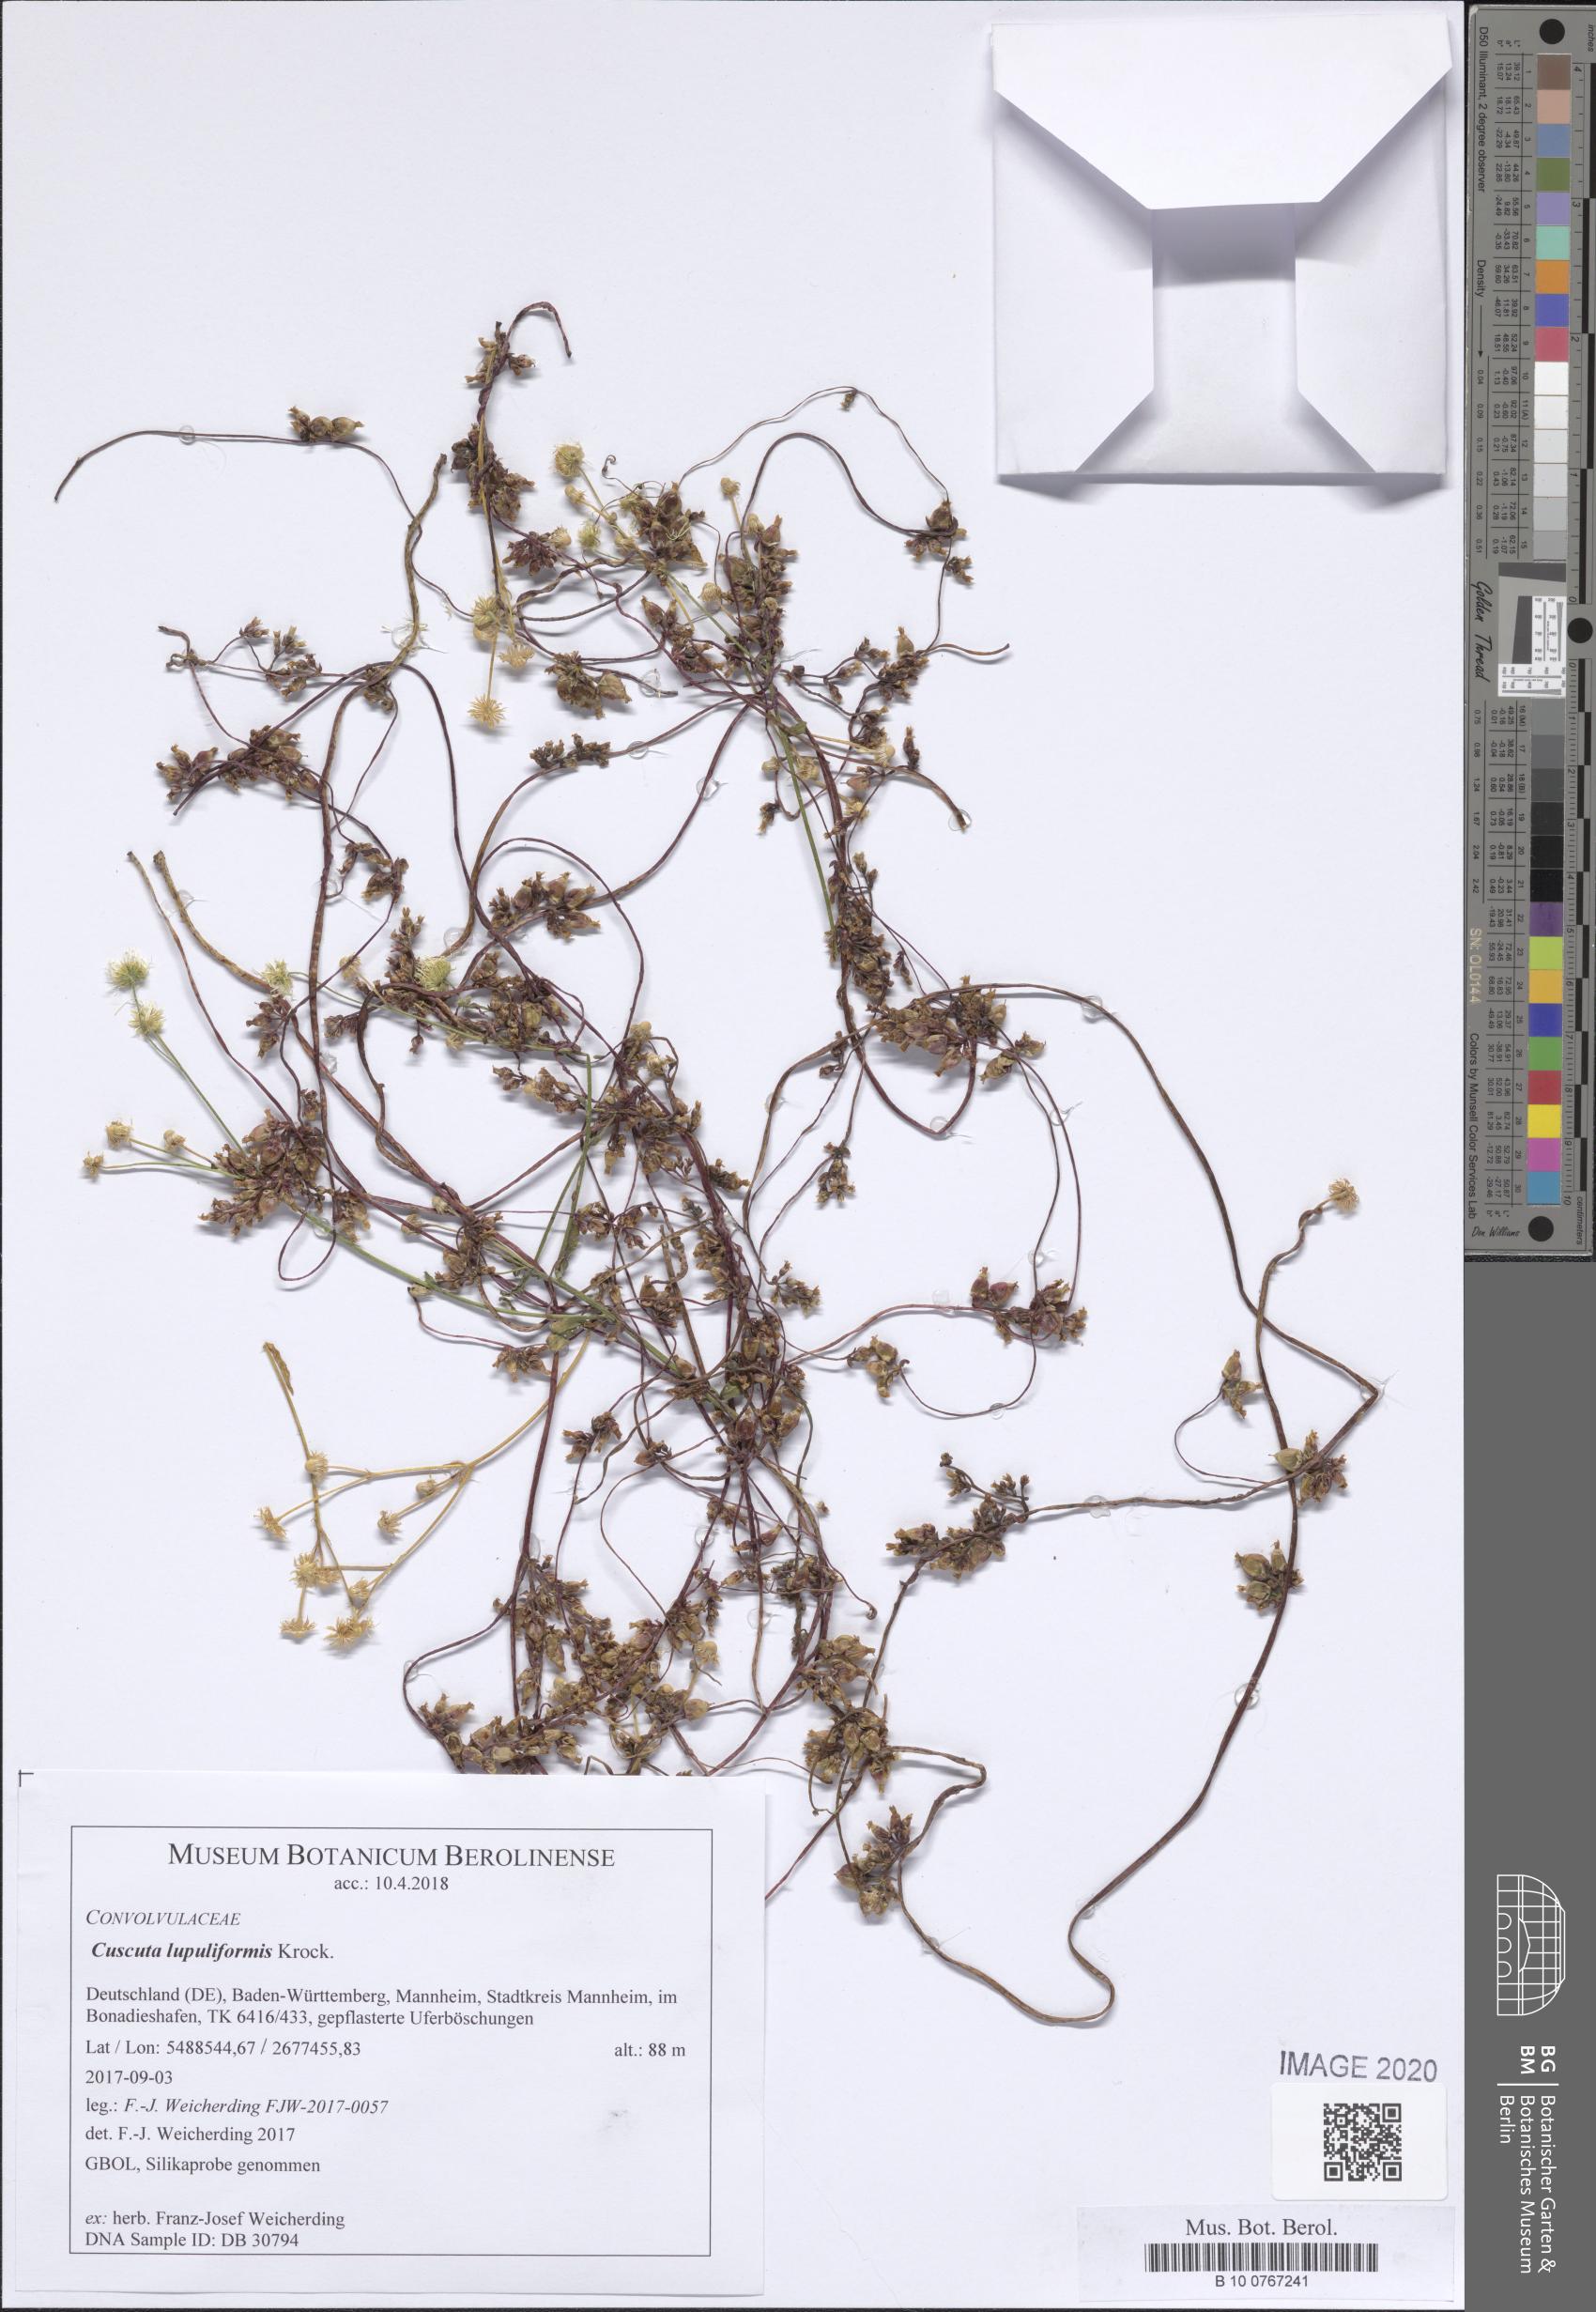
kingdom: Plantae
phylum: Tracheophyta
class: Magnoliopsida
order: Solanales
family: Convolvulaceae
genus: Cuscuta
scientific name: Cuscuta lupuliformis
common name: Hop dodder
